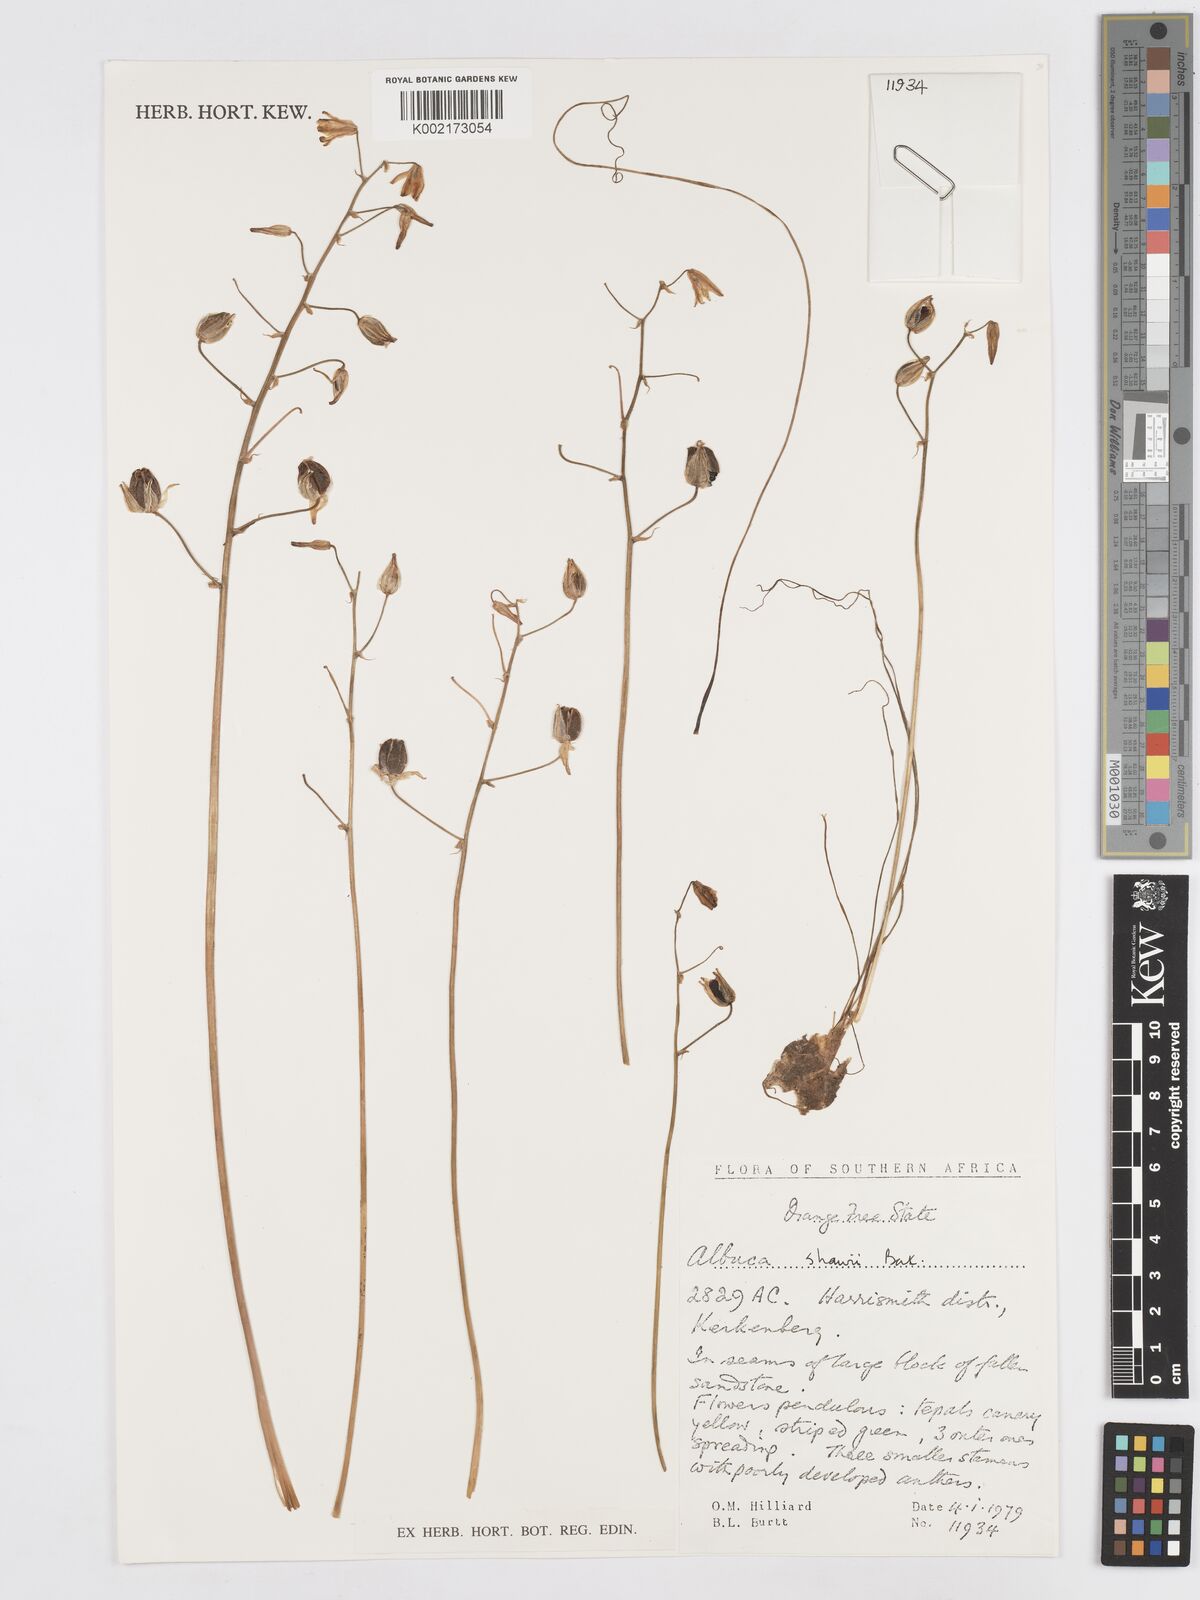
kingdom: Plantae
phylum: Tracheophyta
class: Liliopsida
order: Asparagales
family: Asparagaceae
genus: Albuca
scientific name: Albuca shawii
